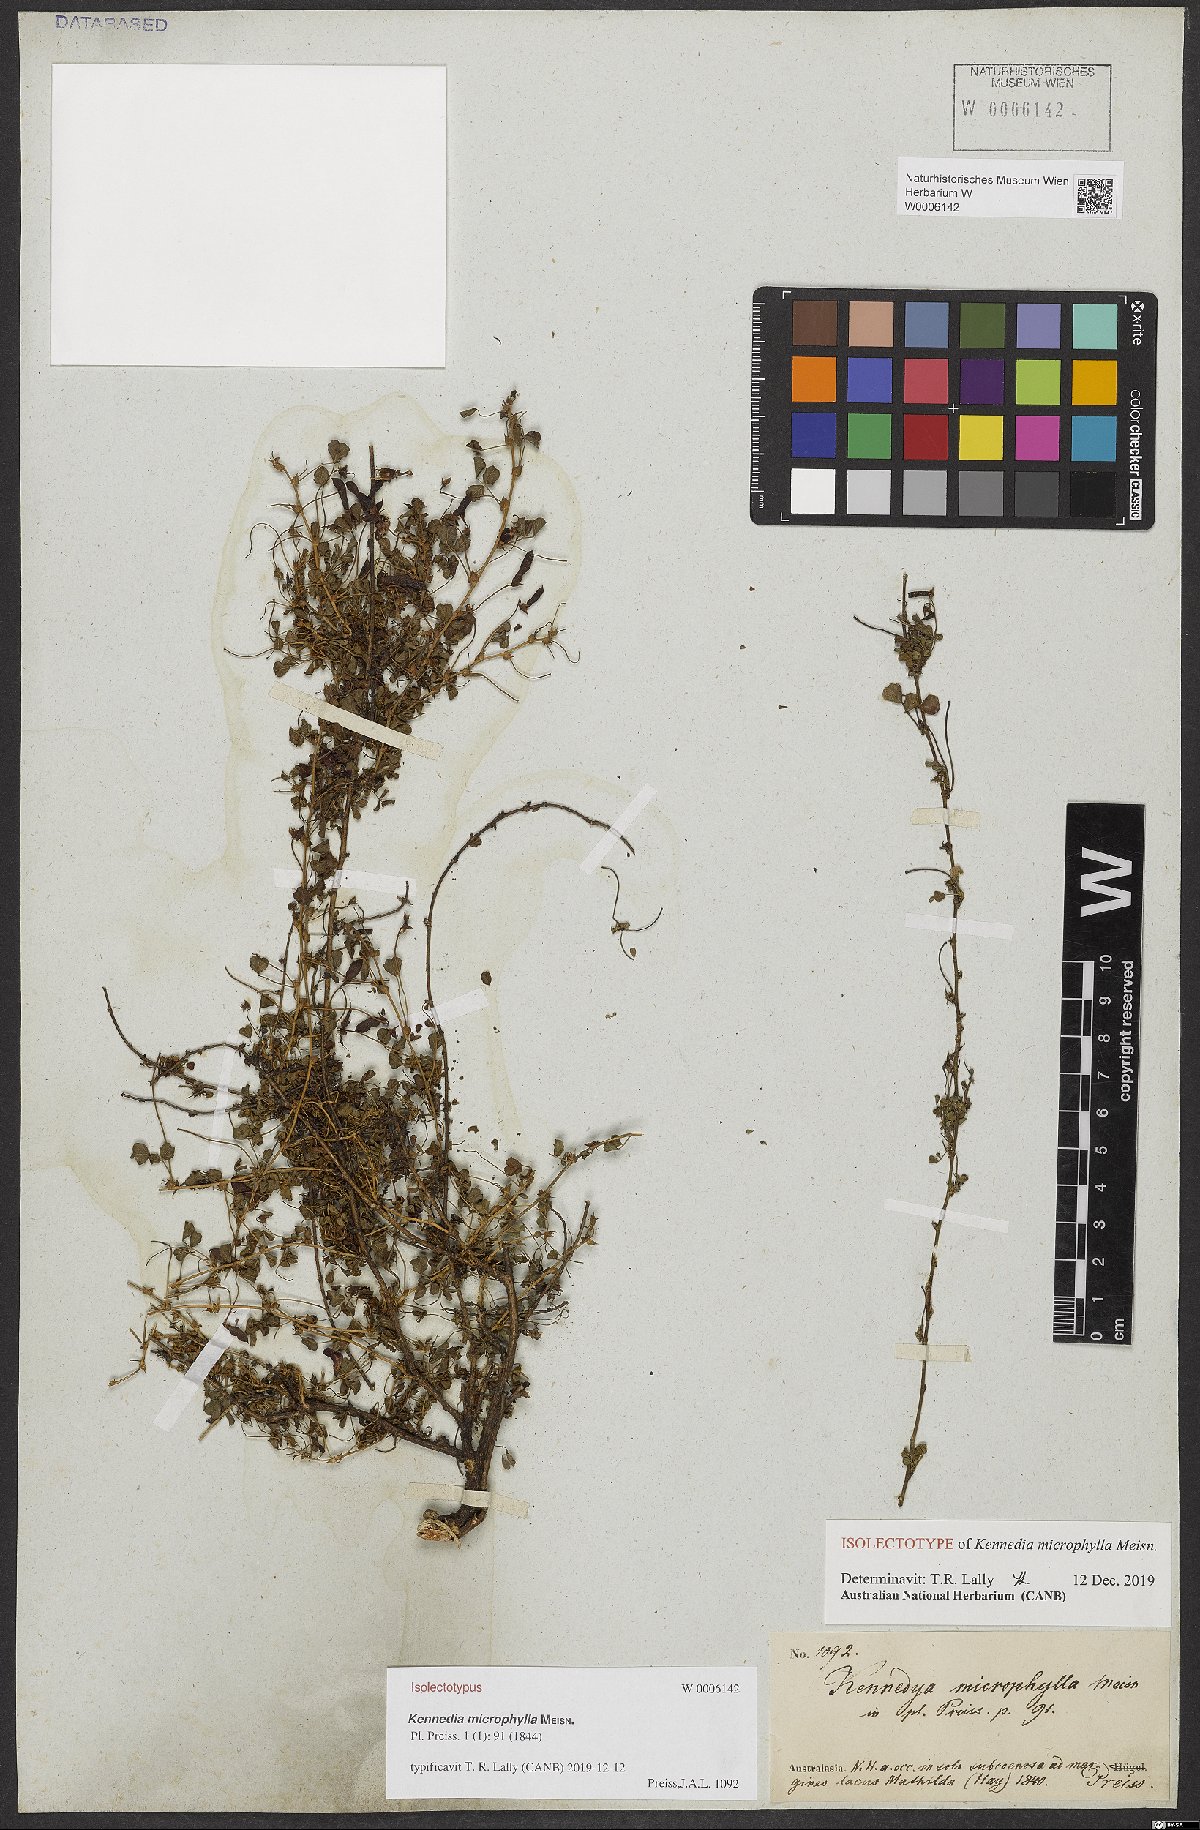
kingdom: Plantae
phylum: Tracheophyta
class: Magnoliopsida
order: Fabales
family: Fabaceae
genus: Kennedia
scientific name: Kennedia microphylla
